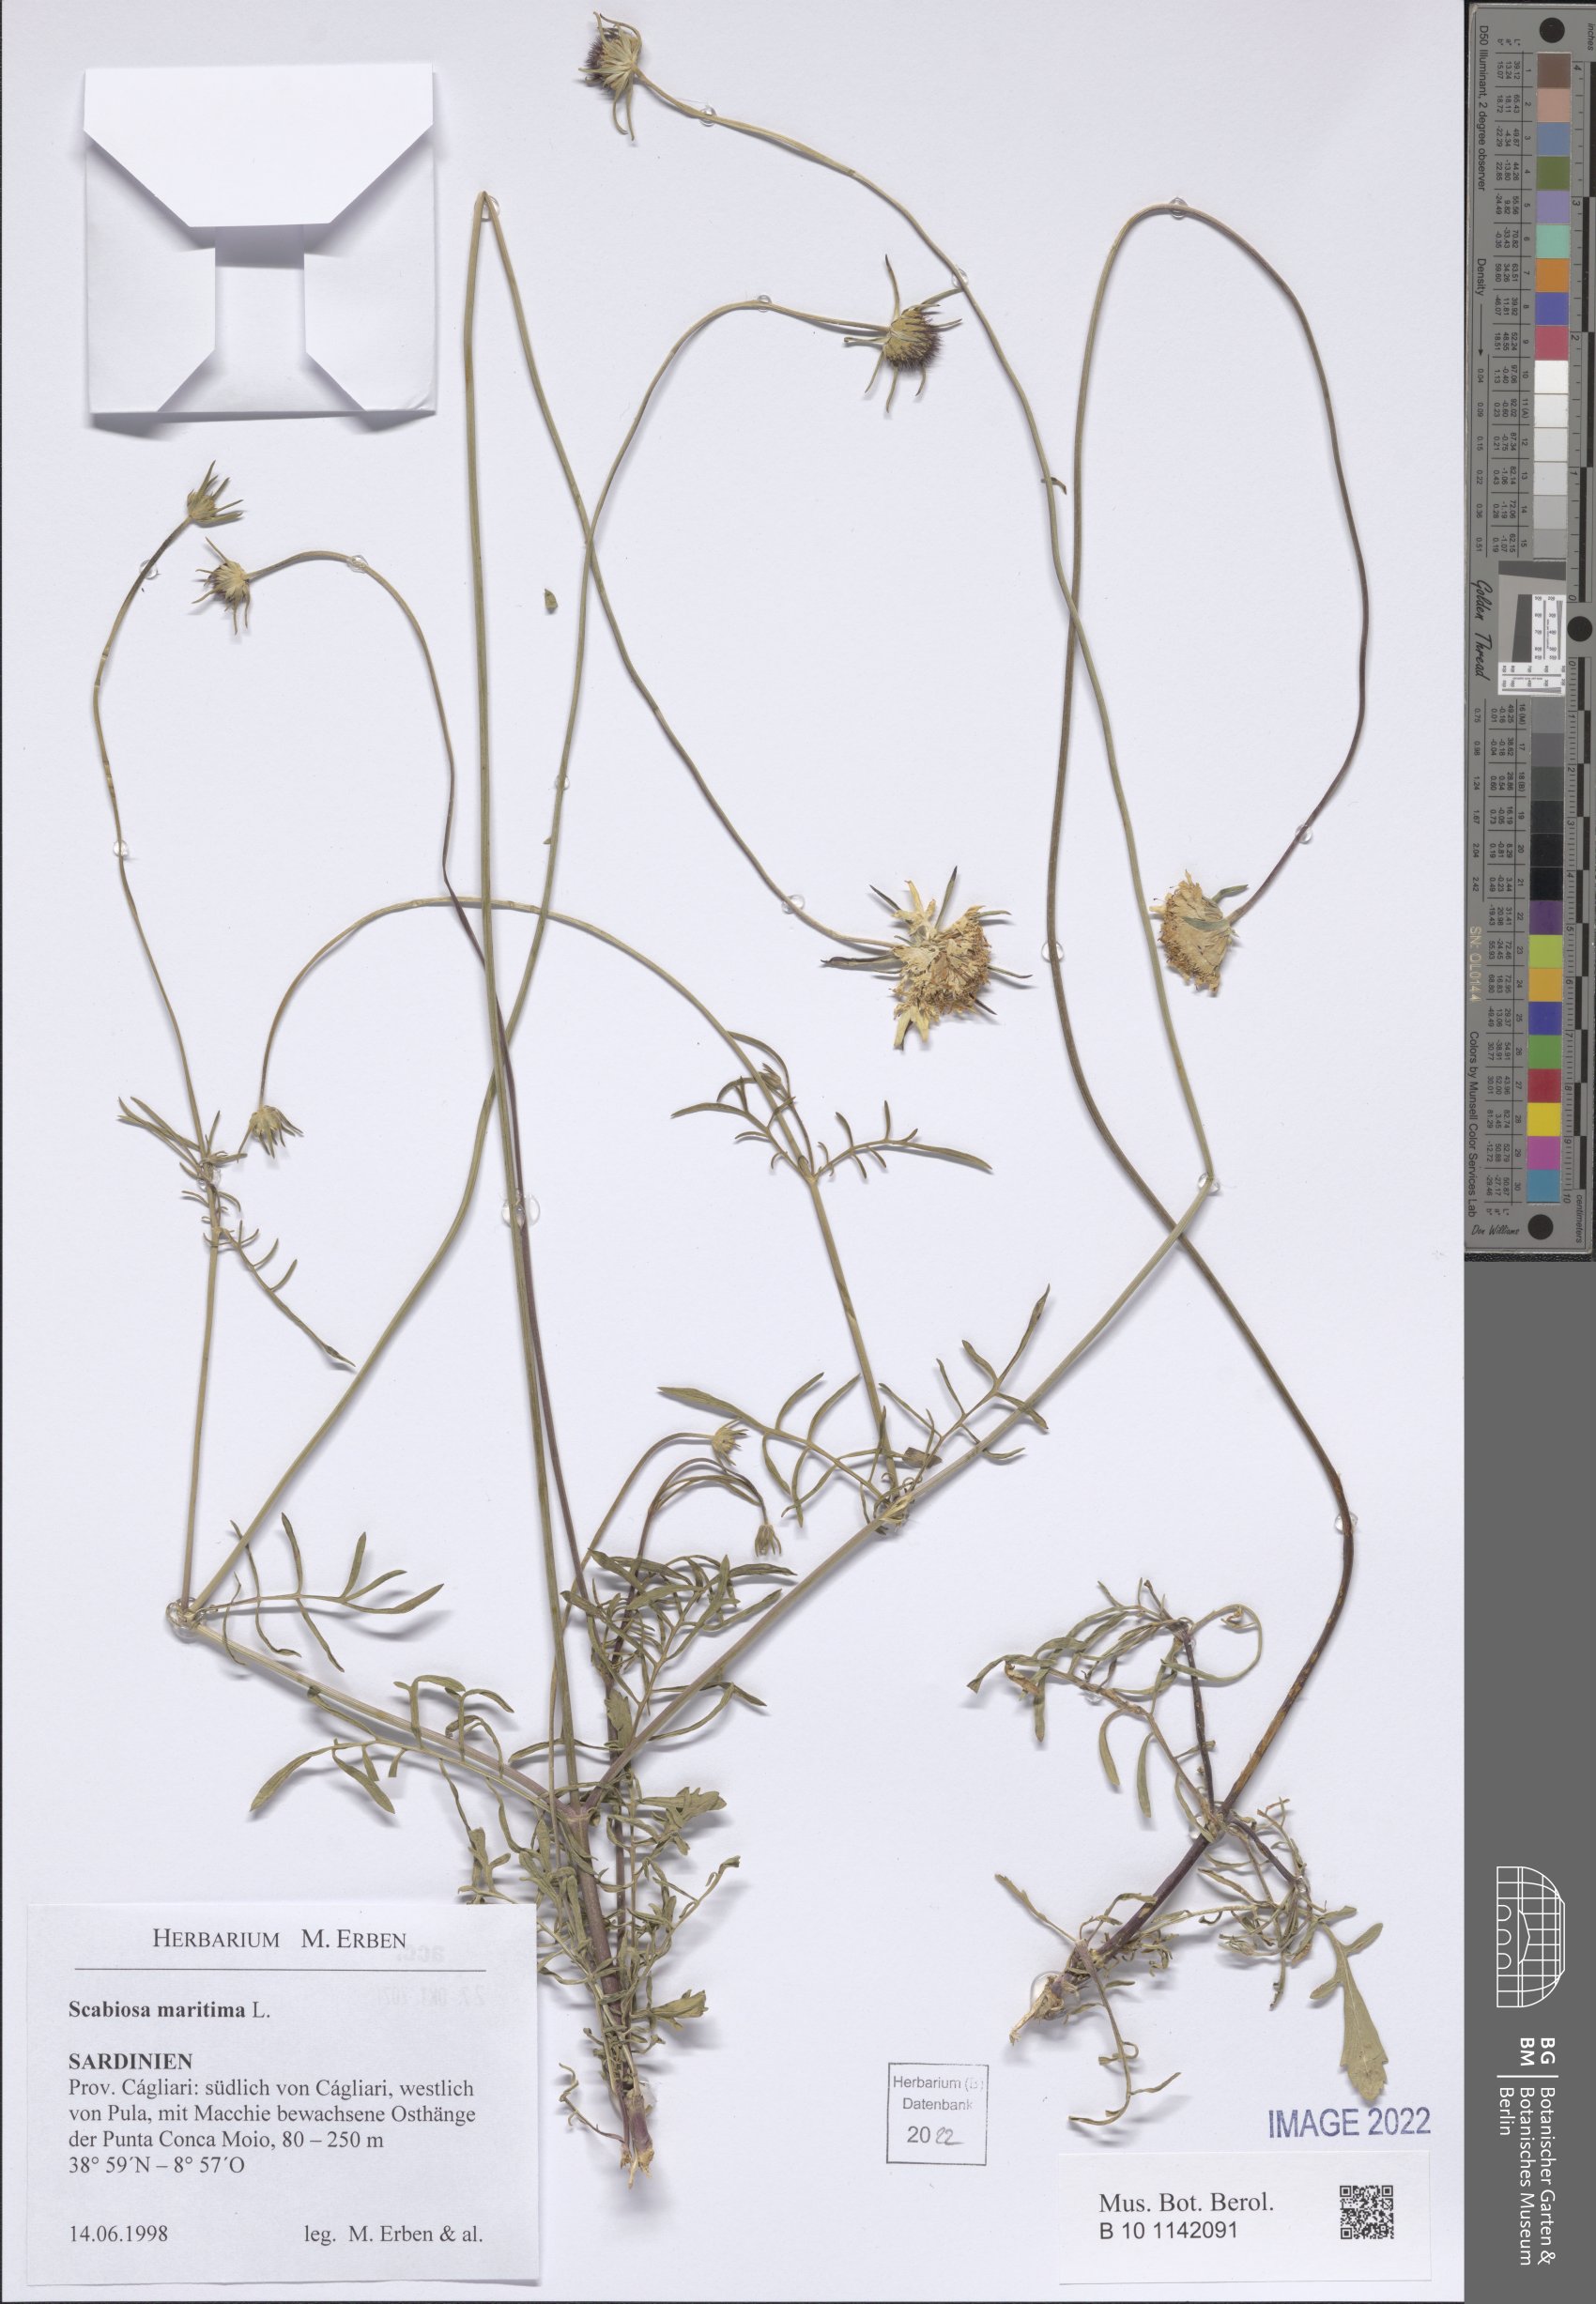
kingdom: Plantae
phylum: Tracheophyta
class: Magnoliopsida
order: Dipsacales
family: Caprifoliaceae
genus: Sixalix
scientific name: Sixalix maritima
